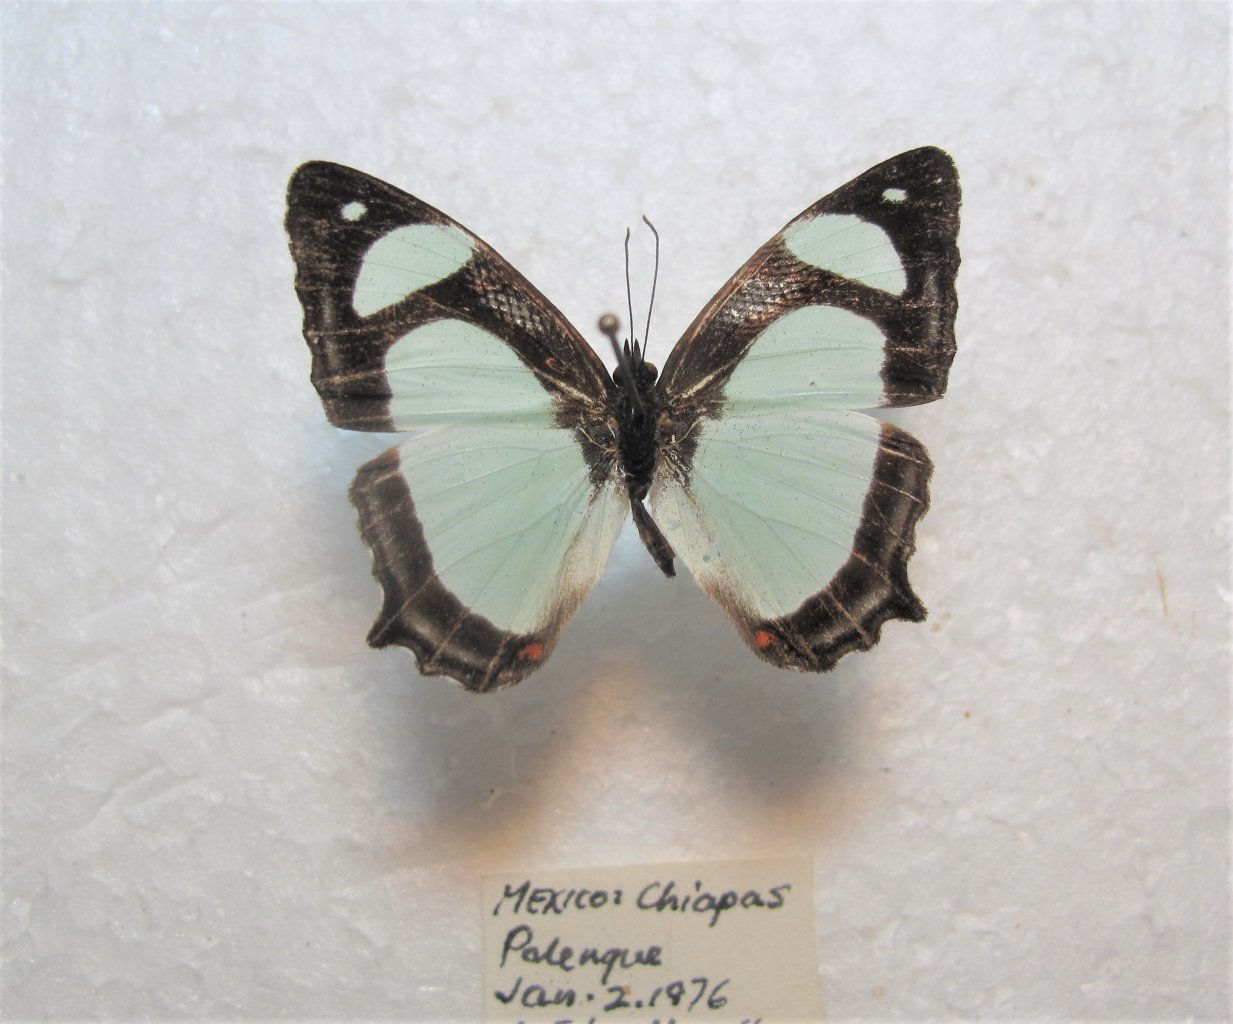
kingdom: Animalia
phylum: Arthropoda
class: Insecta
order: Lepidoptera
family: Nymphalidae
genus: Pyrrhogyra
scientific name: Pyrrhogyra otolais
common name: Double-banded Banner
